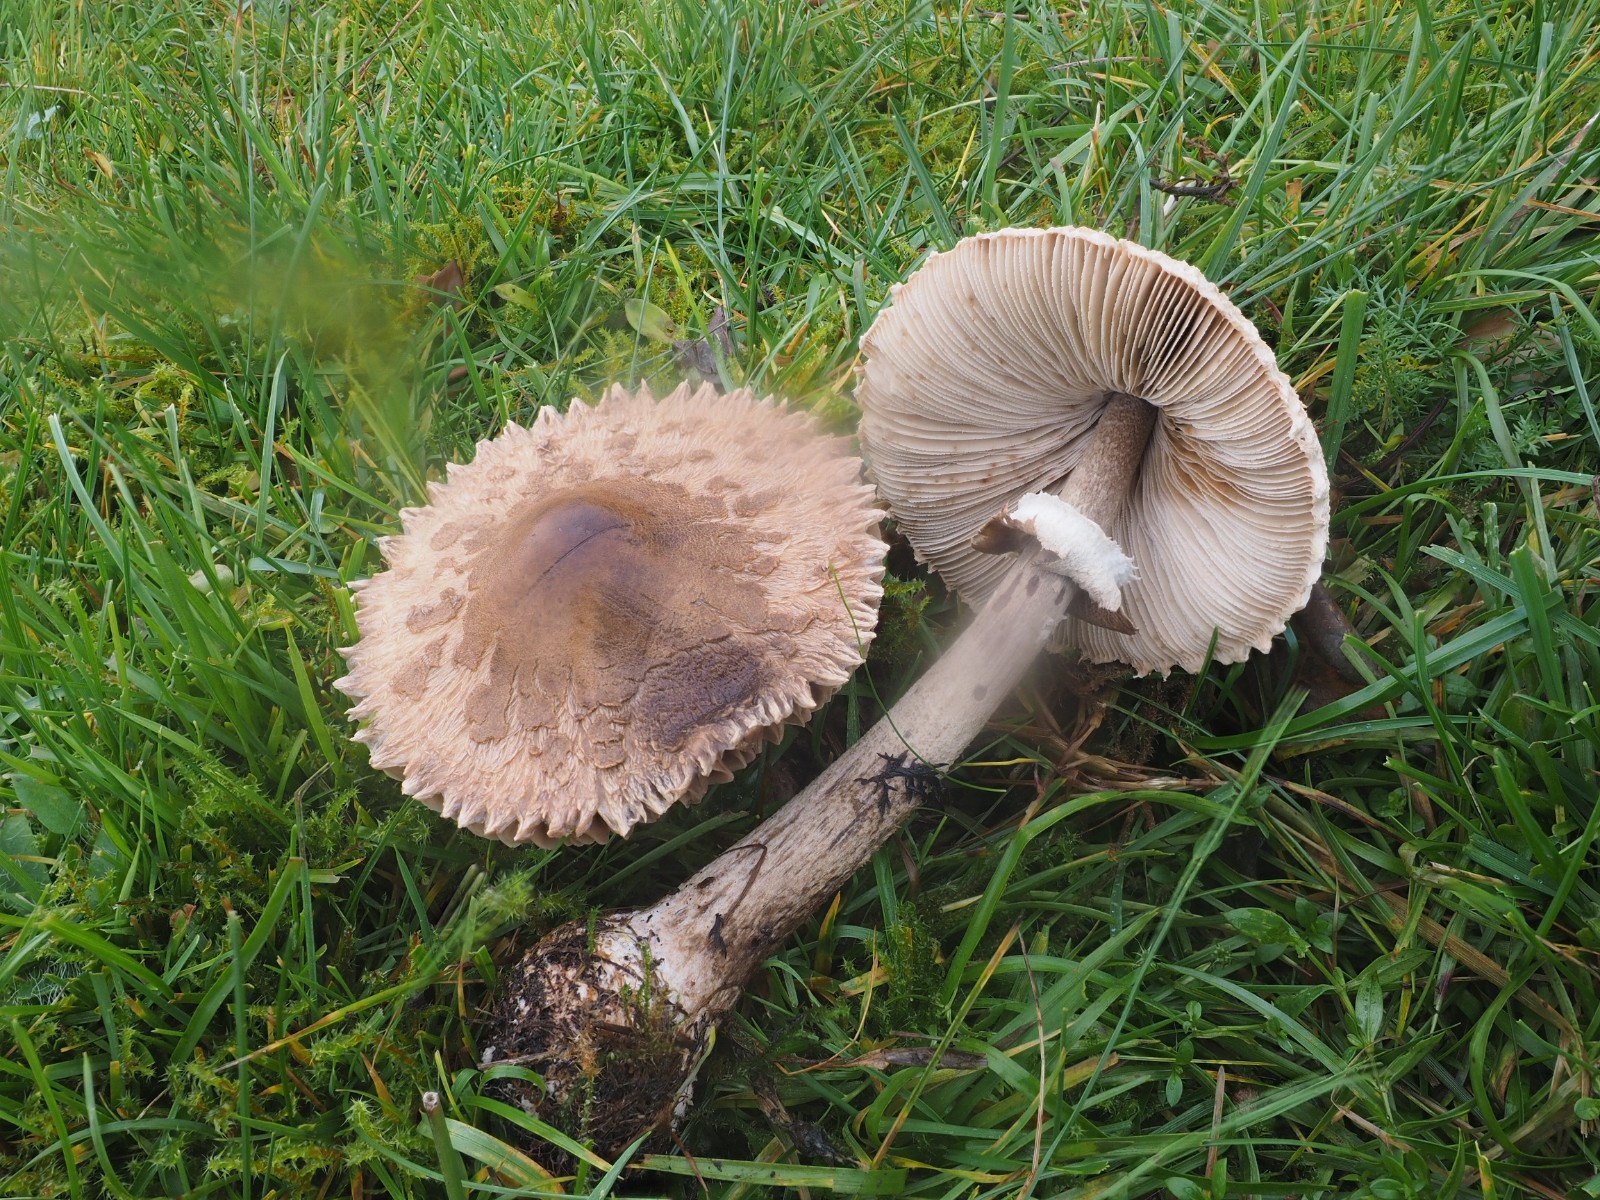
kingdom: Fungi
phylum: Basidiomycota
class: Agaricomycetes
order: Agaricales
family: Agaricaceae
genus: Macrolepiota
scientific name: Macrolepiota mastoidea
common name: puklet kæmpeparasolhat
